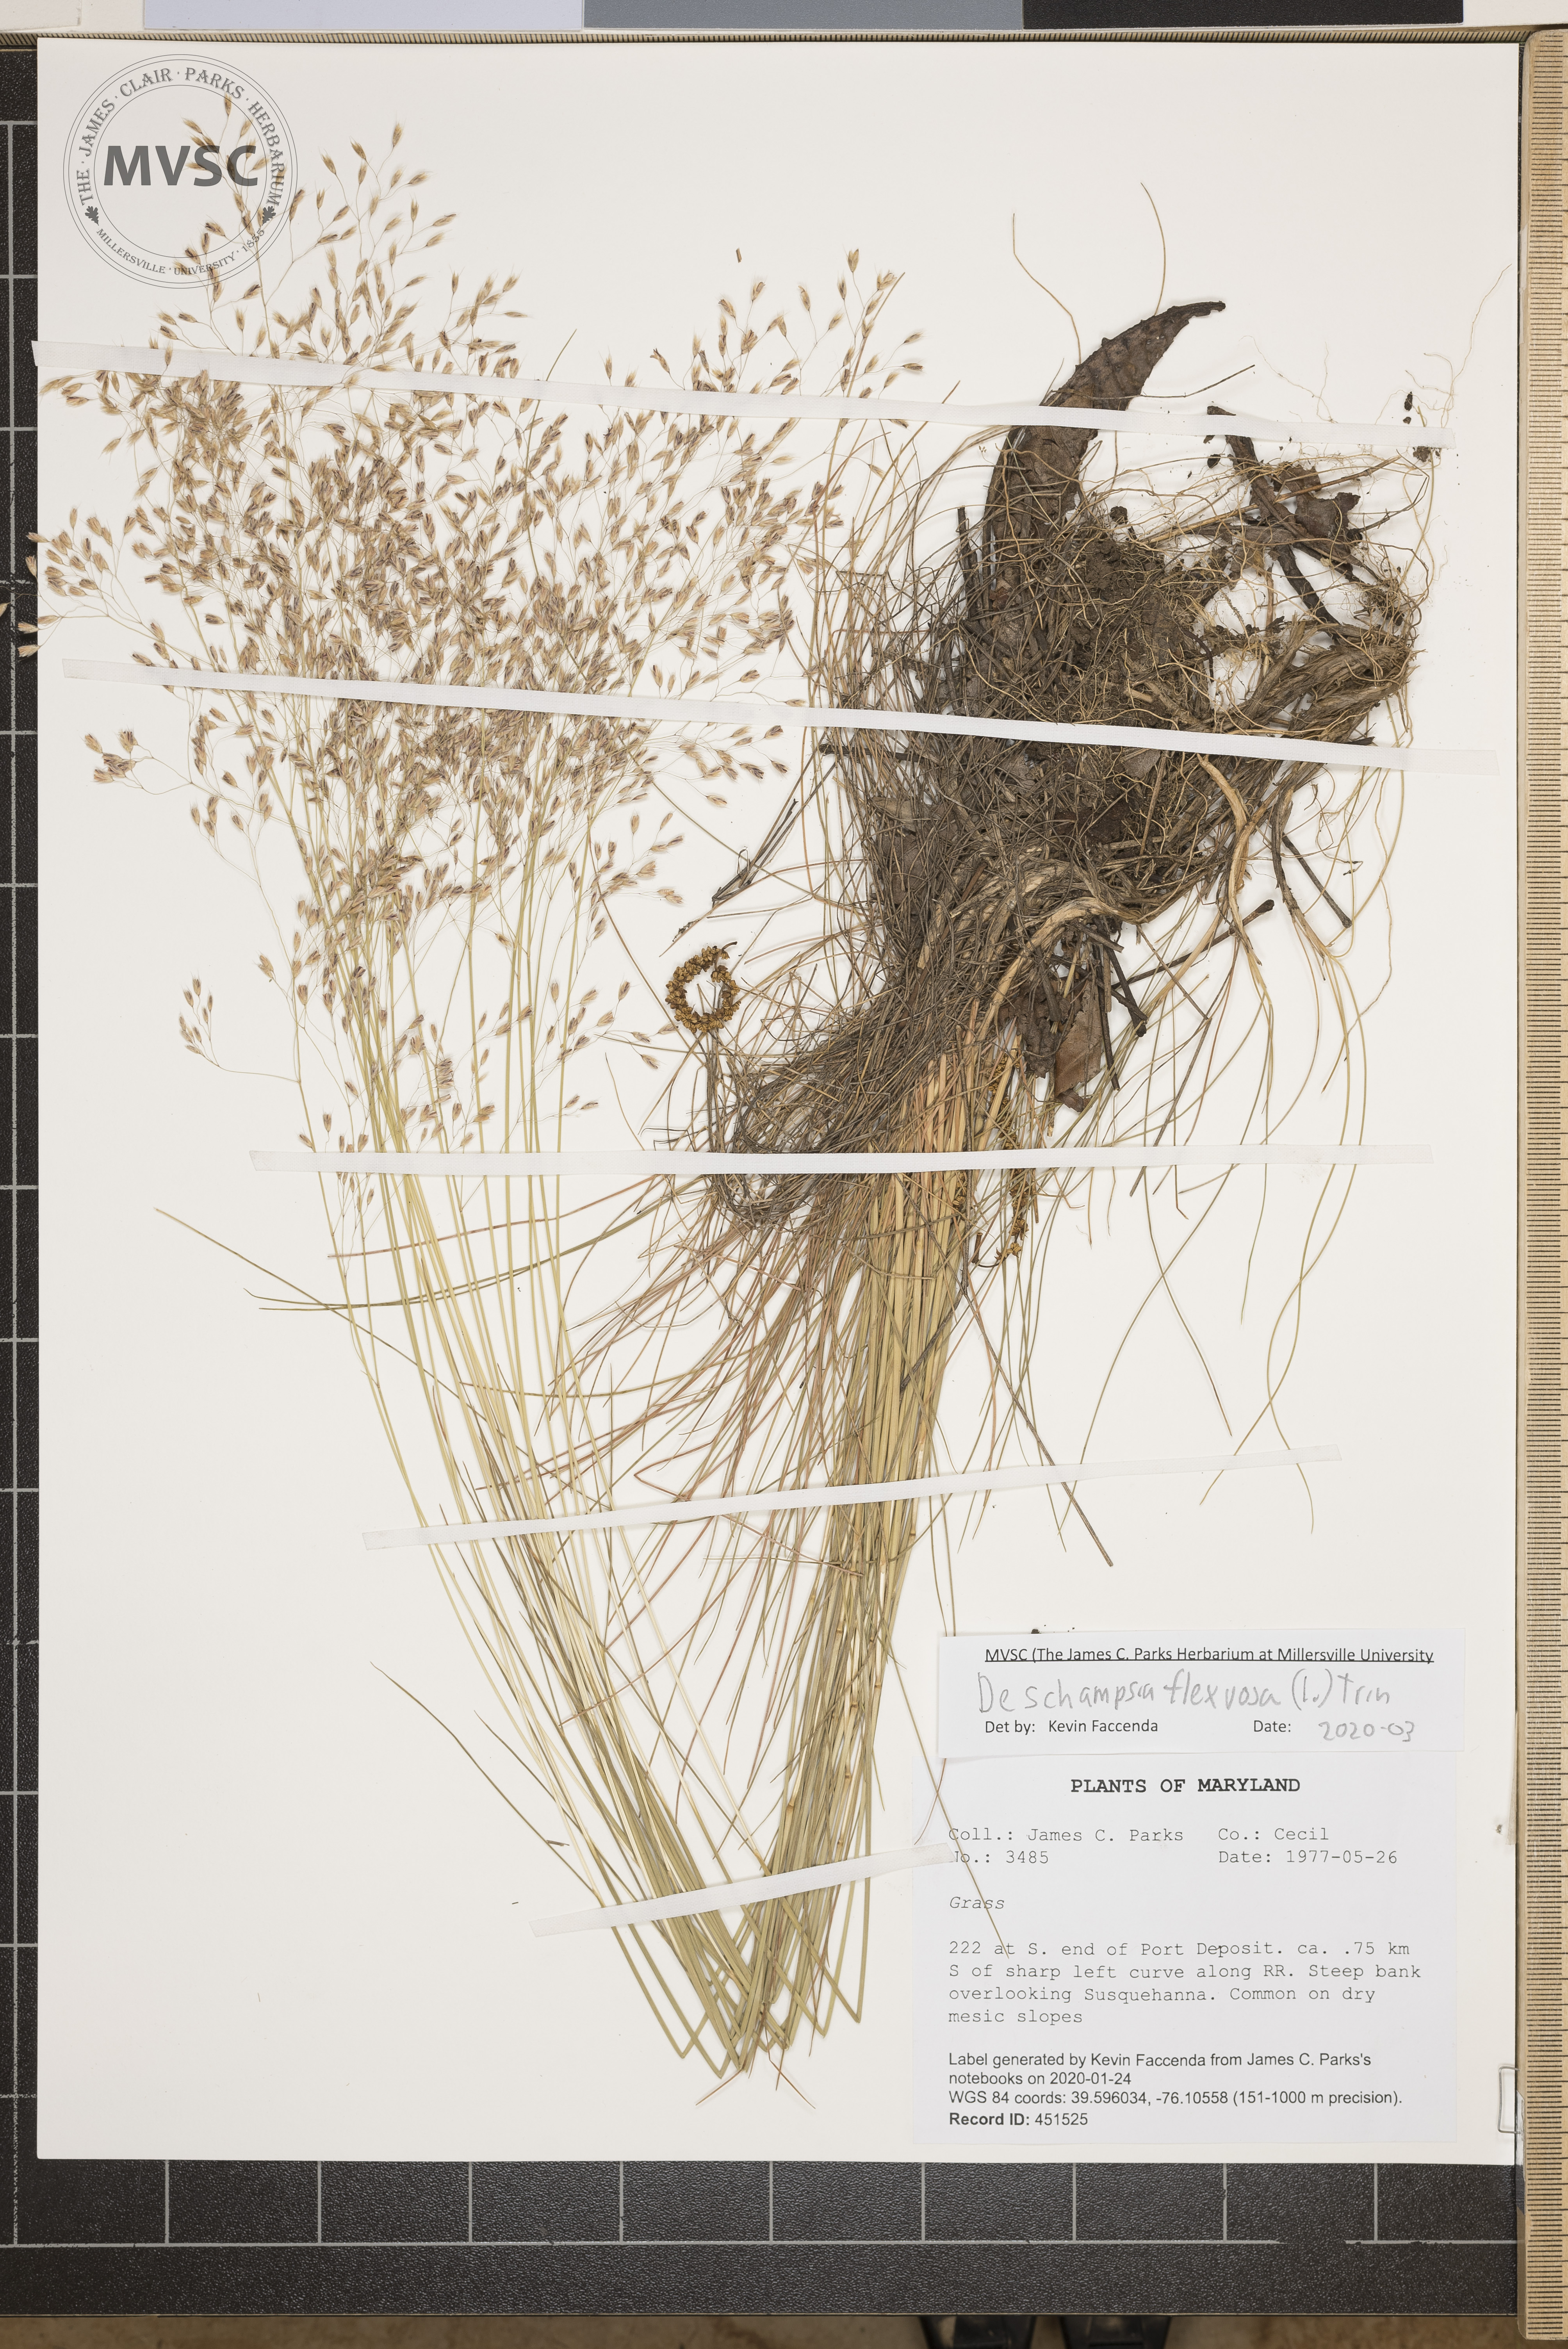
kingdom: Plantae
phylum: Tracheophyta
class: Liliopsida
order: Poales
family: Poaceae
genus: Avenella
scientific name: Avenella flexuosa
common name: Wavy hairgrass
